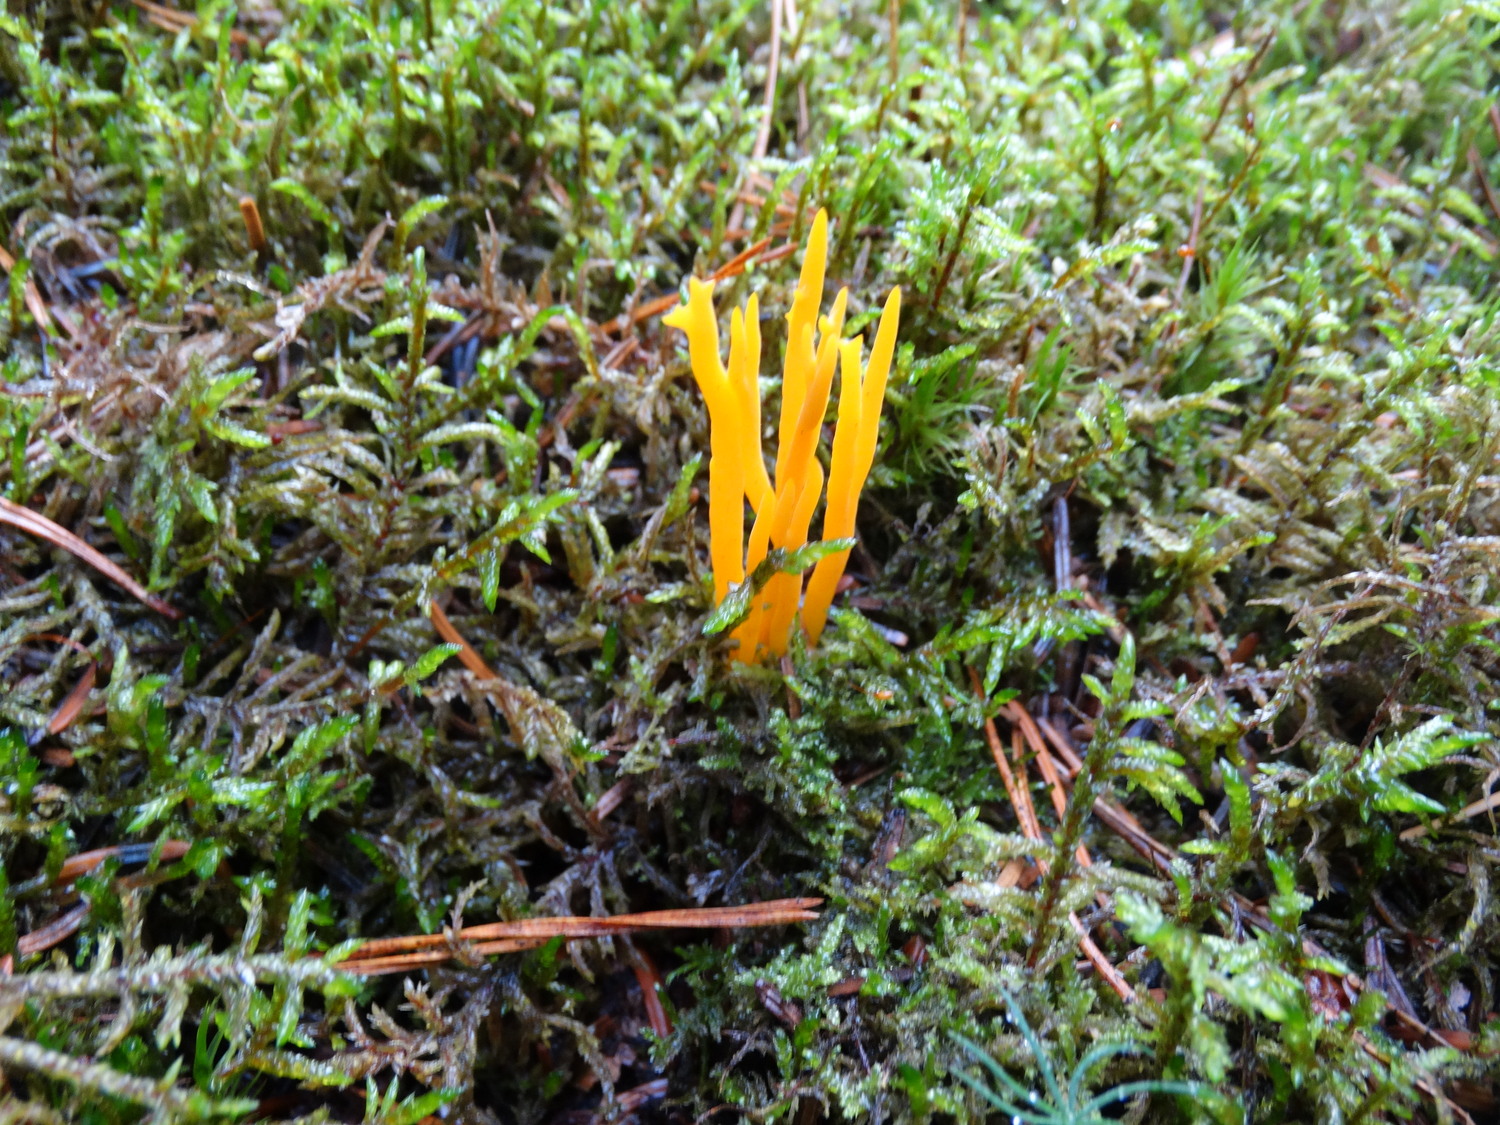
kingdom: Fungi
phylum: Basidiomycota
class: Dacrymycetes
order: Dacrymycetales
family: Dacrymycetaceae
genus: Calocera
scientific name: Calocera viscosa
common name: almindelig guldgaffel
